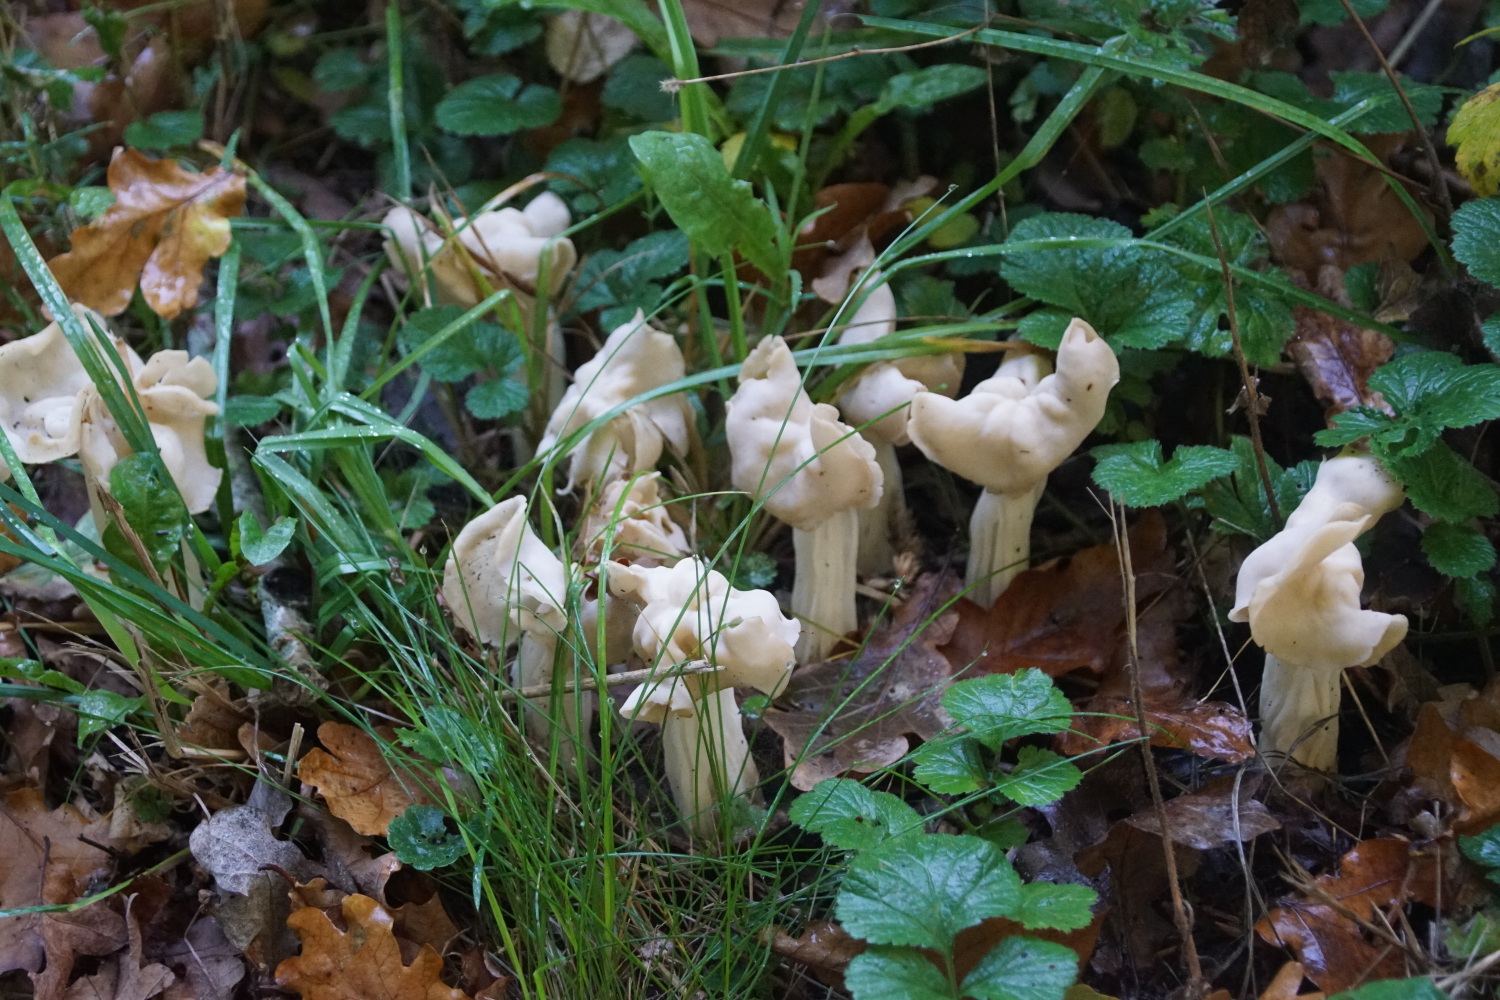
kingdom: Fungi
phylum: Ascomycota
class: Pezizomycetes
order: Pezizales
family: Helvellaceae
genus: Helvella
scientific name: Helvella crispa
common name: kruset foldhat
